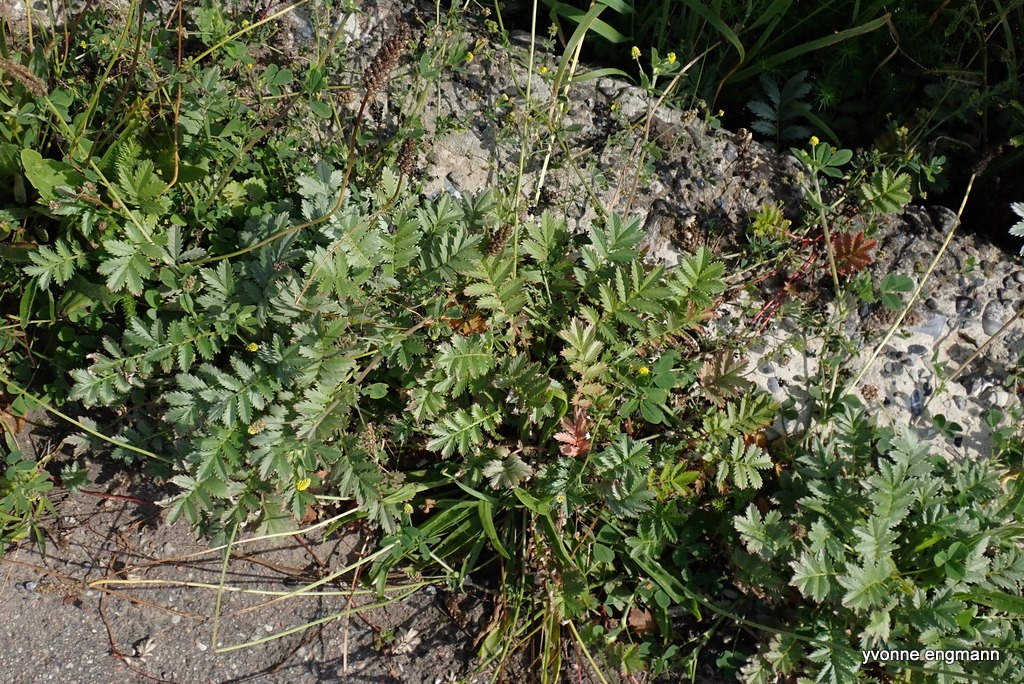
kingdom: Plantae
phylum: Tracheophyta
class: Magnoliopsida
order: Rosales
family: Rosaceae
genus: Argentina
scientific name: Argentina anserina
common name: Gåsepotentil
